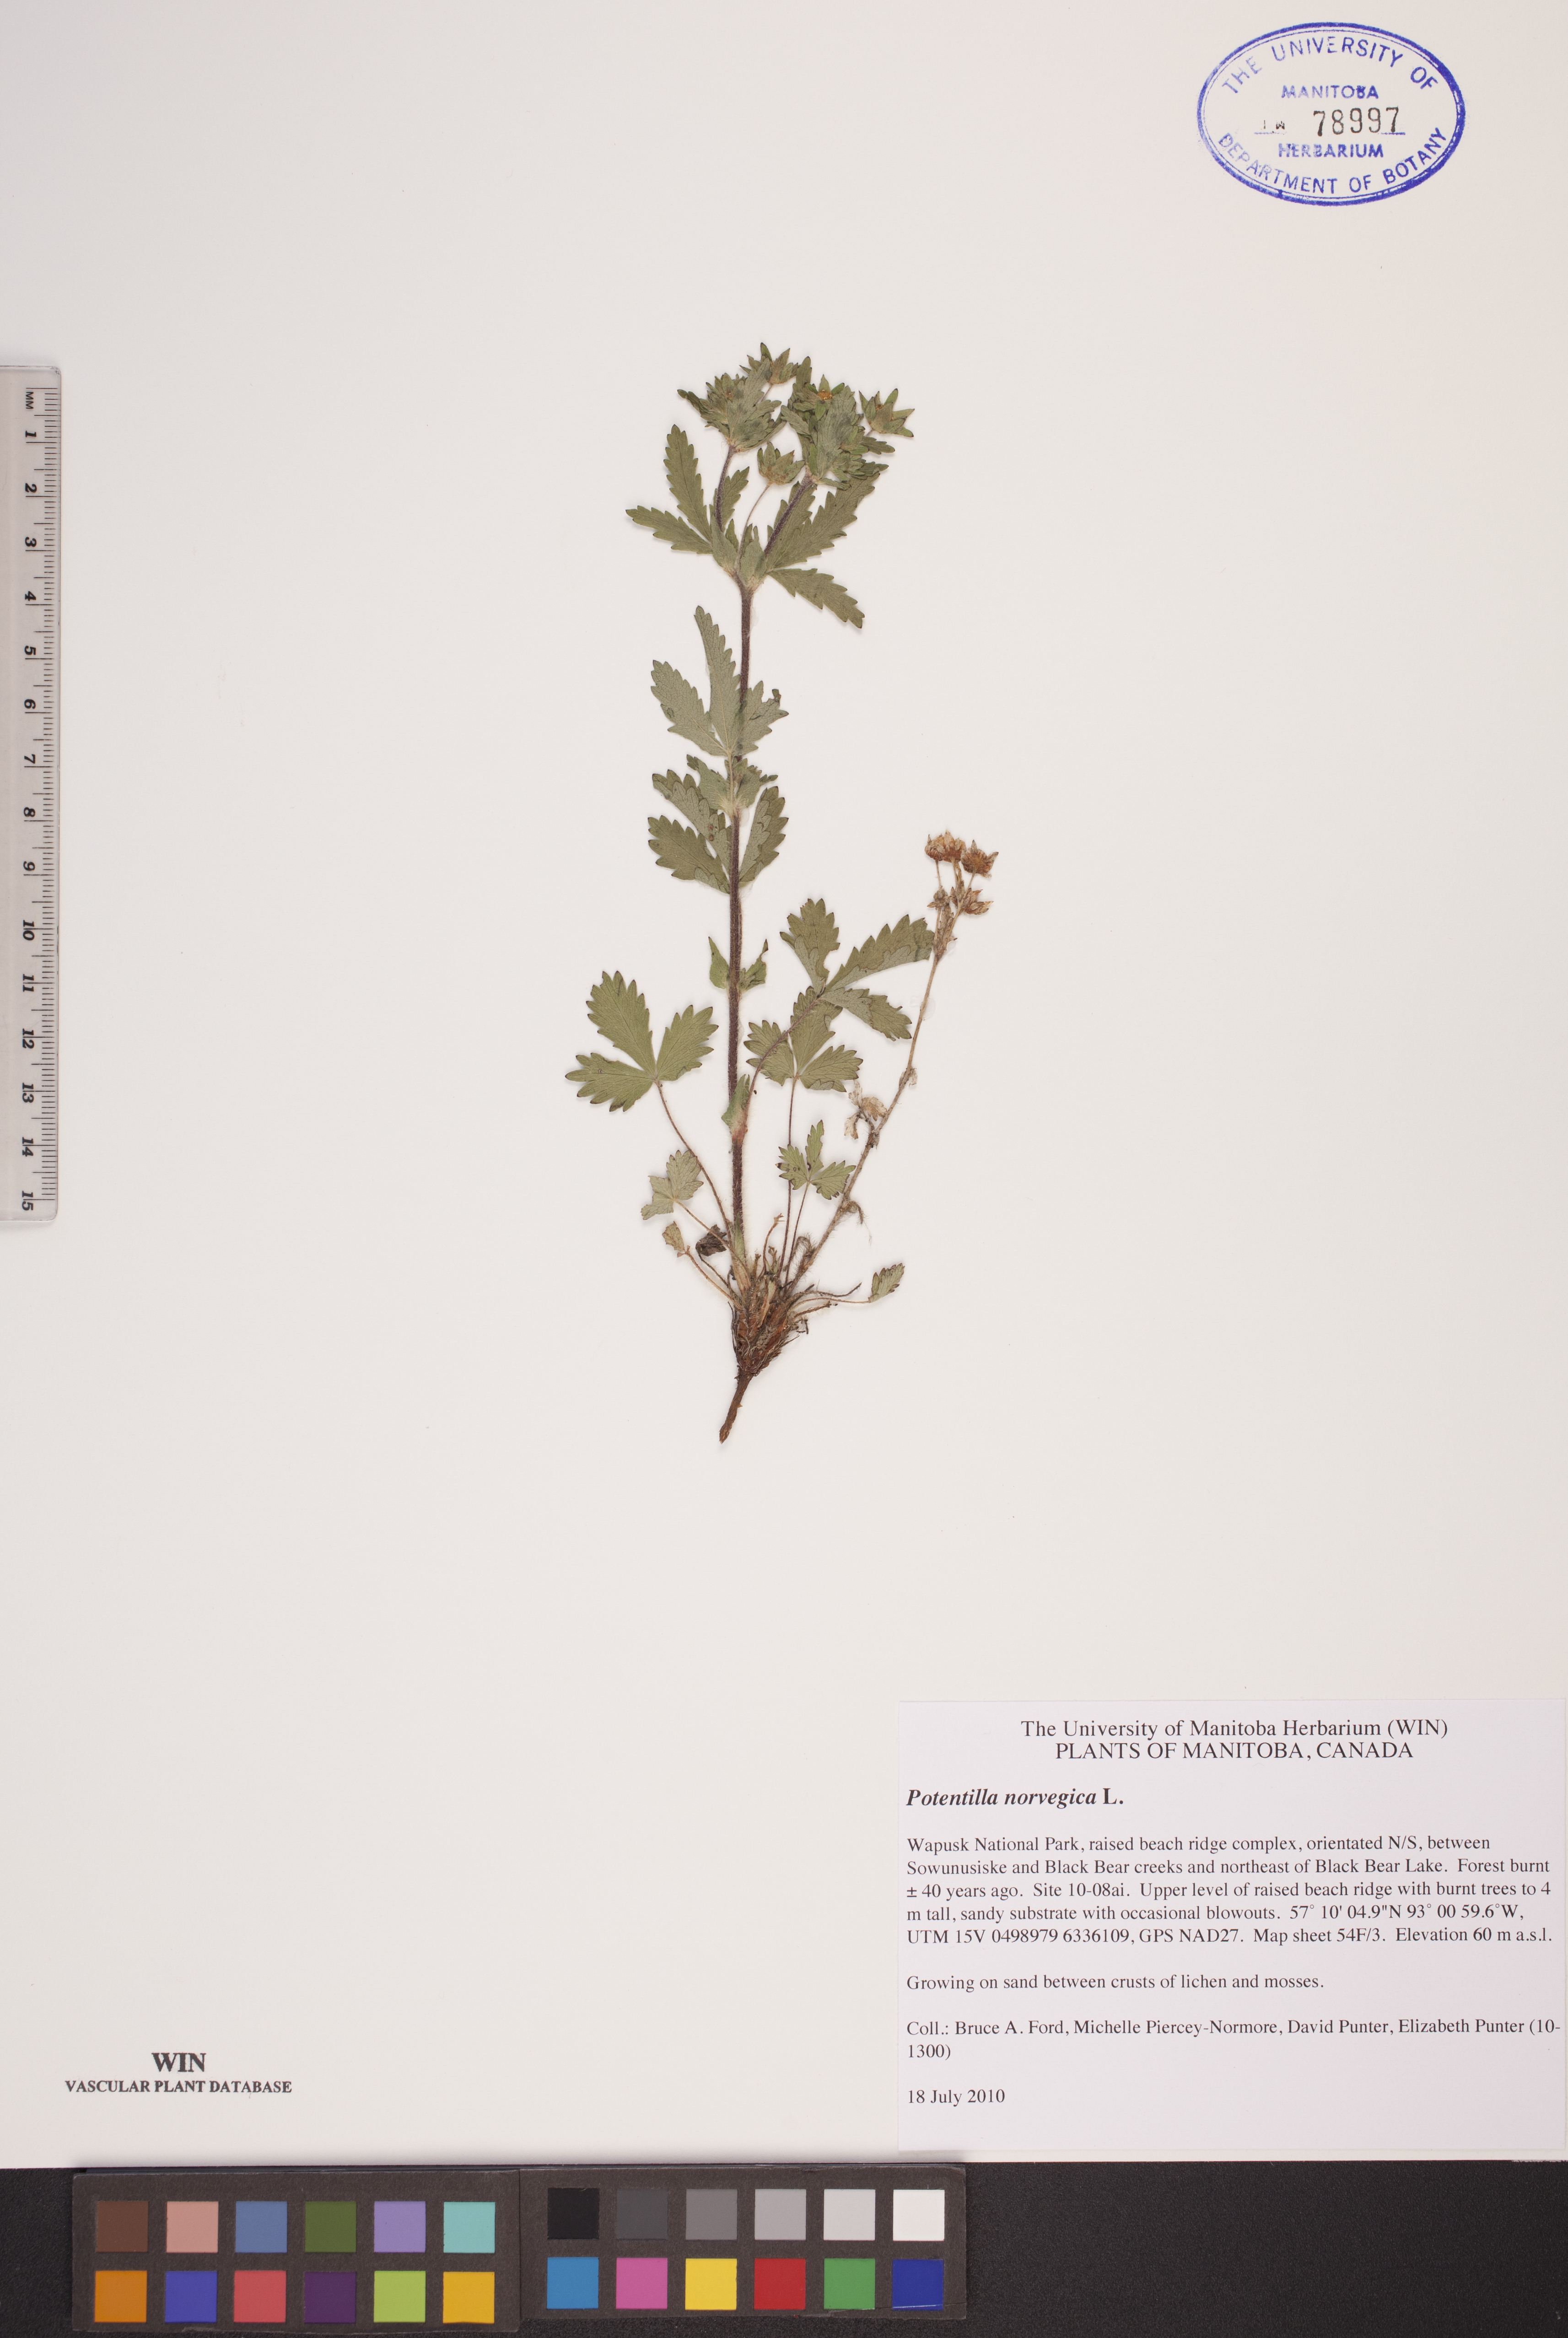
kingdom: Plantae
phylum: Tracheophyta
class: Magnoliopsida
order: Rosales
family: Rosaceae
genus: Potentilla
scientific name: Potentilla norvegica
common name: Ternate-leaved cinquefoil
